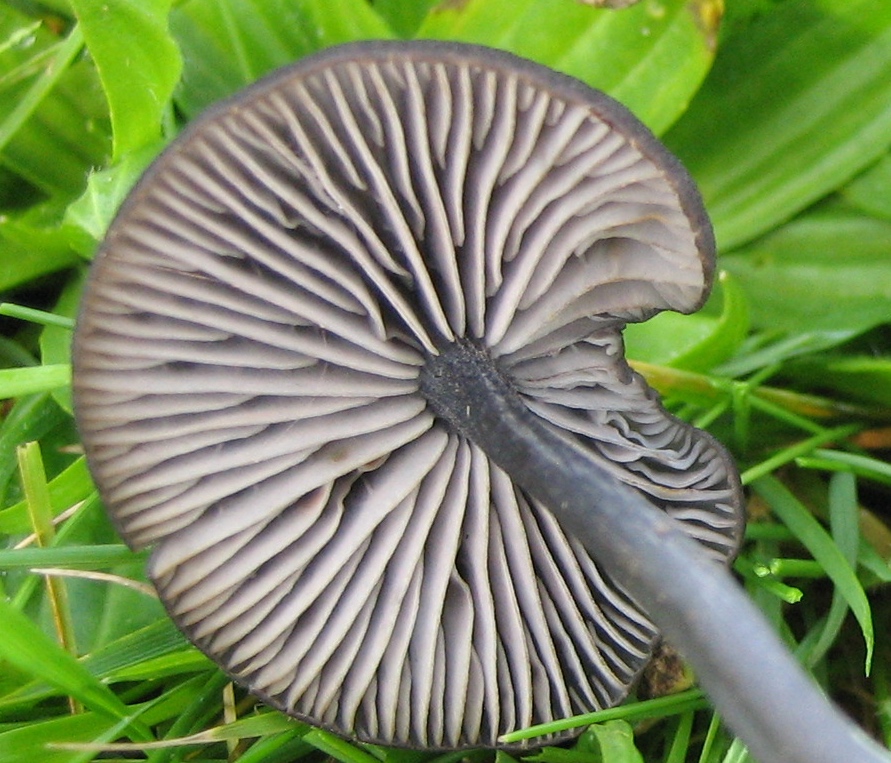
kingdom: Fungi
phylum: Basidiomycota
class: Agaricomycetes
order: Agaricales
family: Entolomataceae
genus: Entoloma
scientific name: Entoloma
